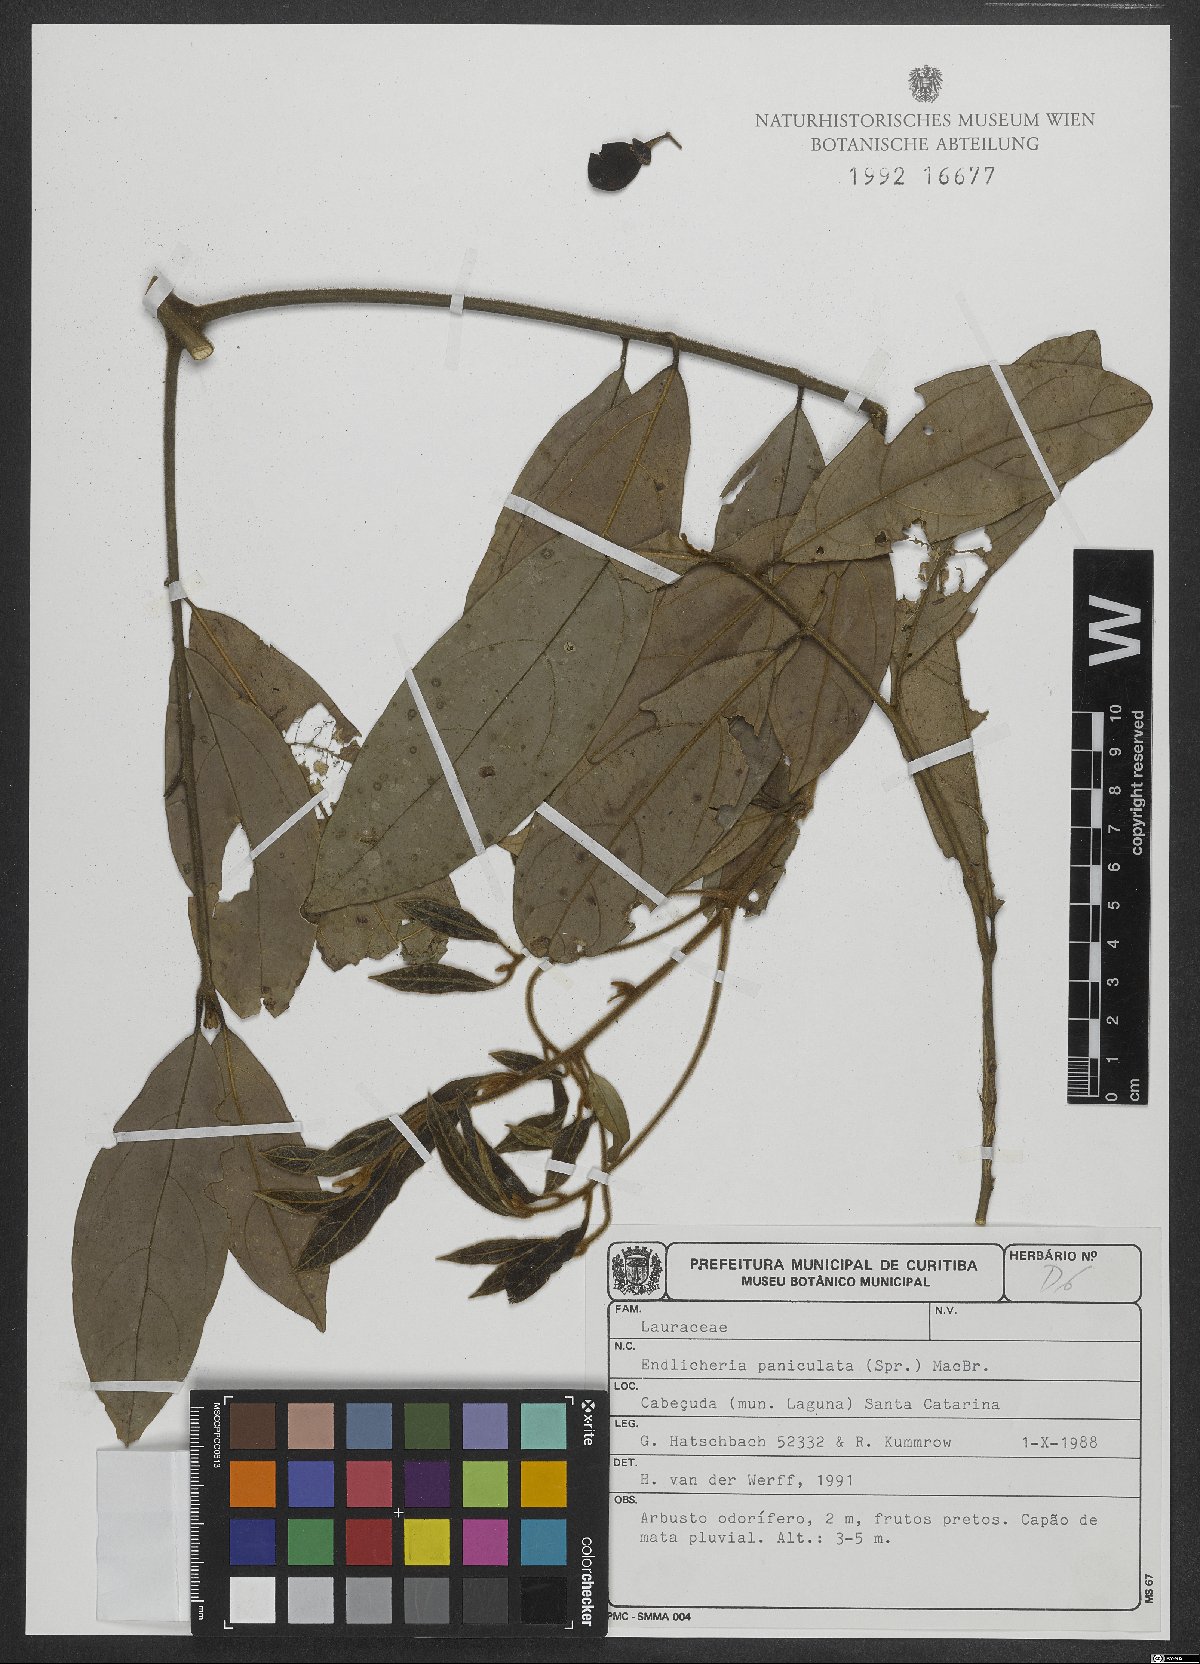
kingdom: Plantae
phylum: Tracheophyta
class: Magnoliopsida
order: Laurales
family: Lauraceae
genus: Endlicheria
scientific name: Endlicheria paniculata
